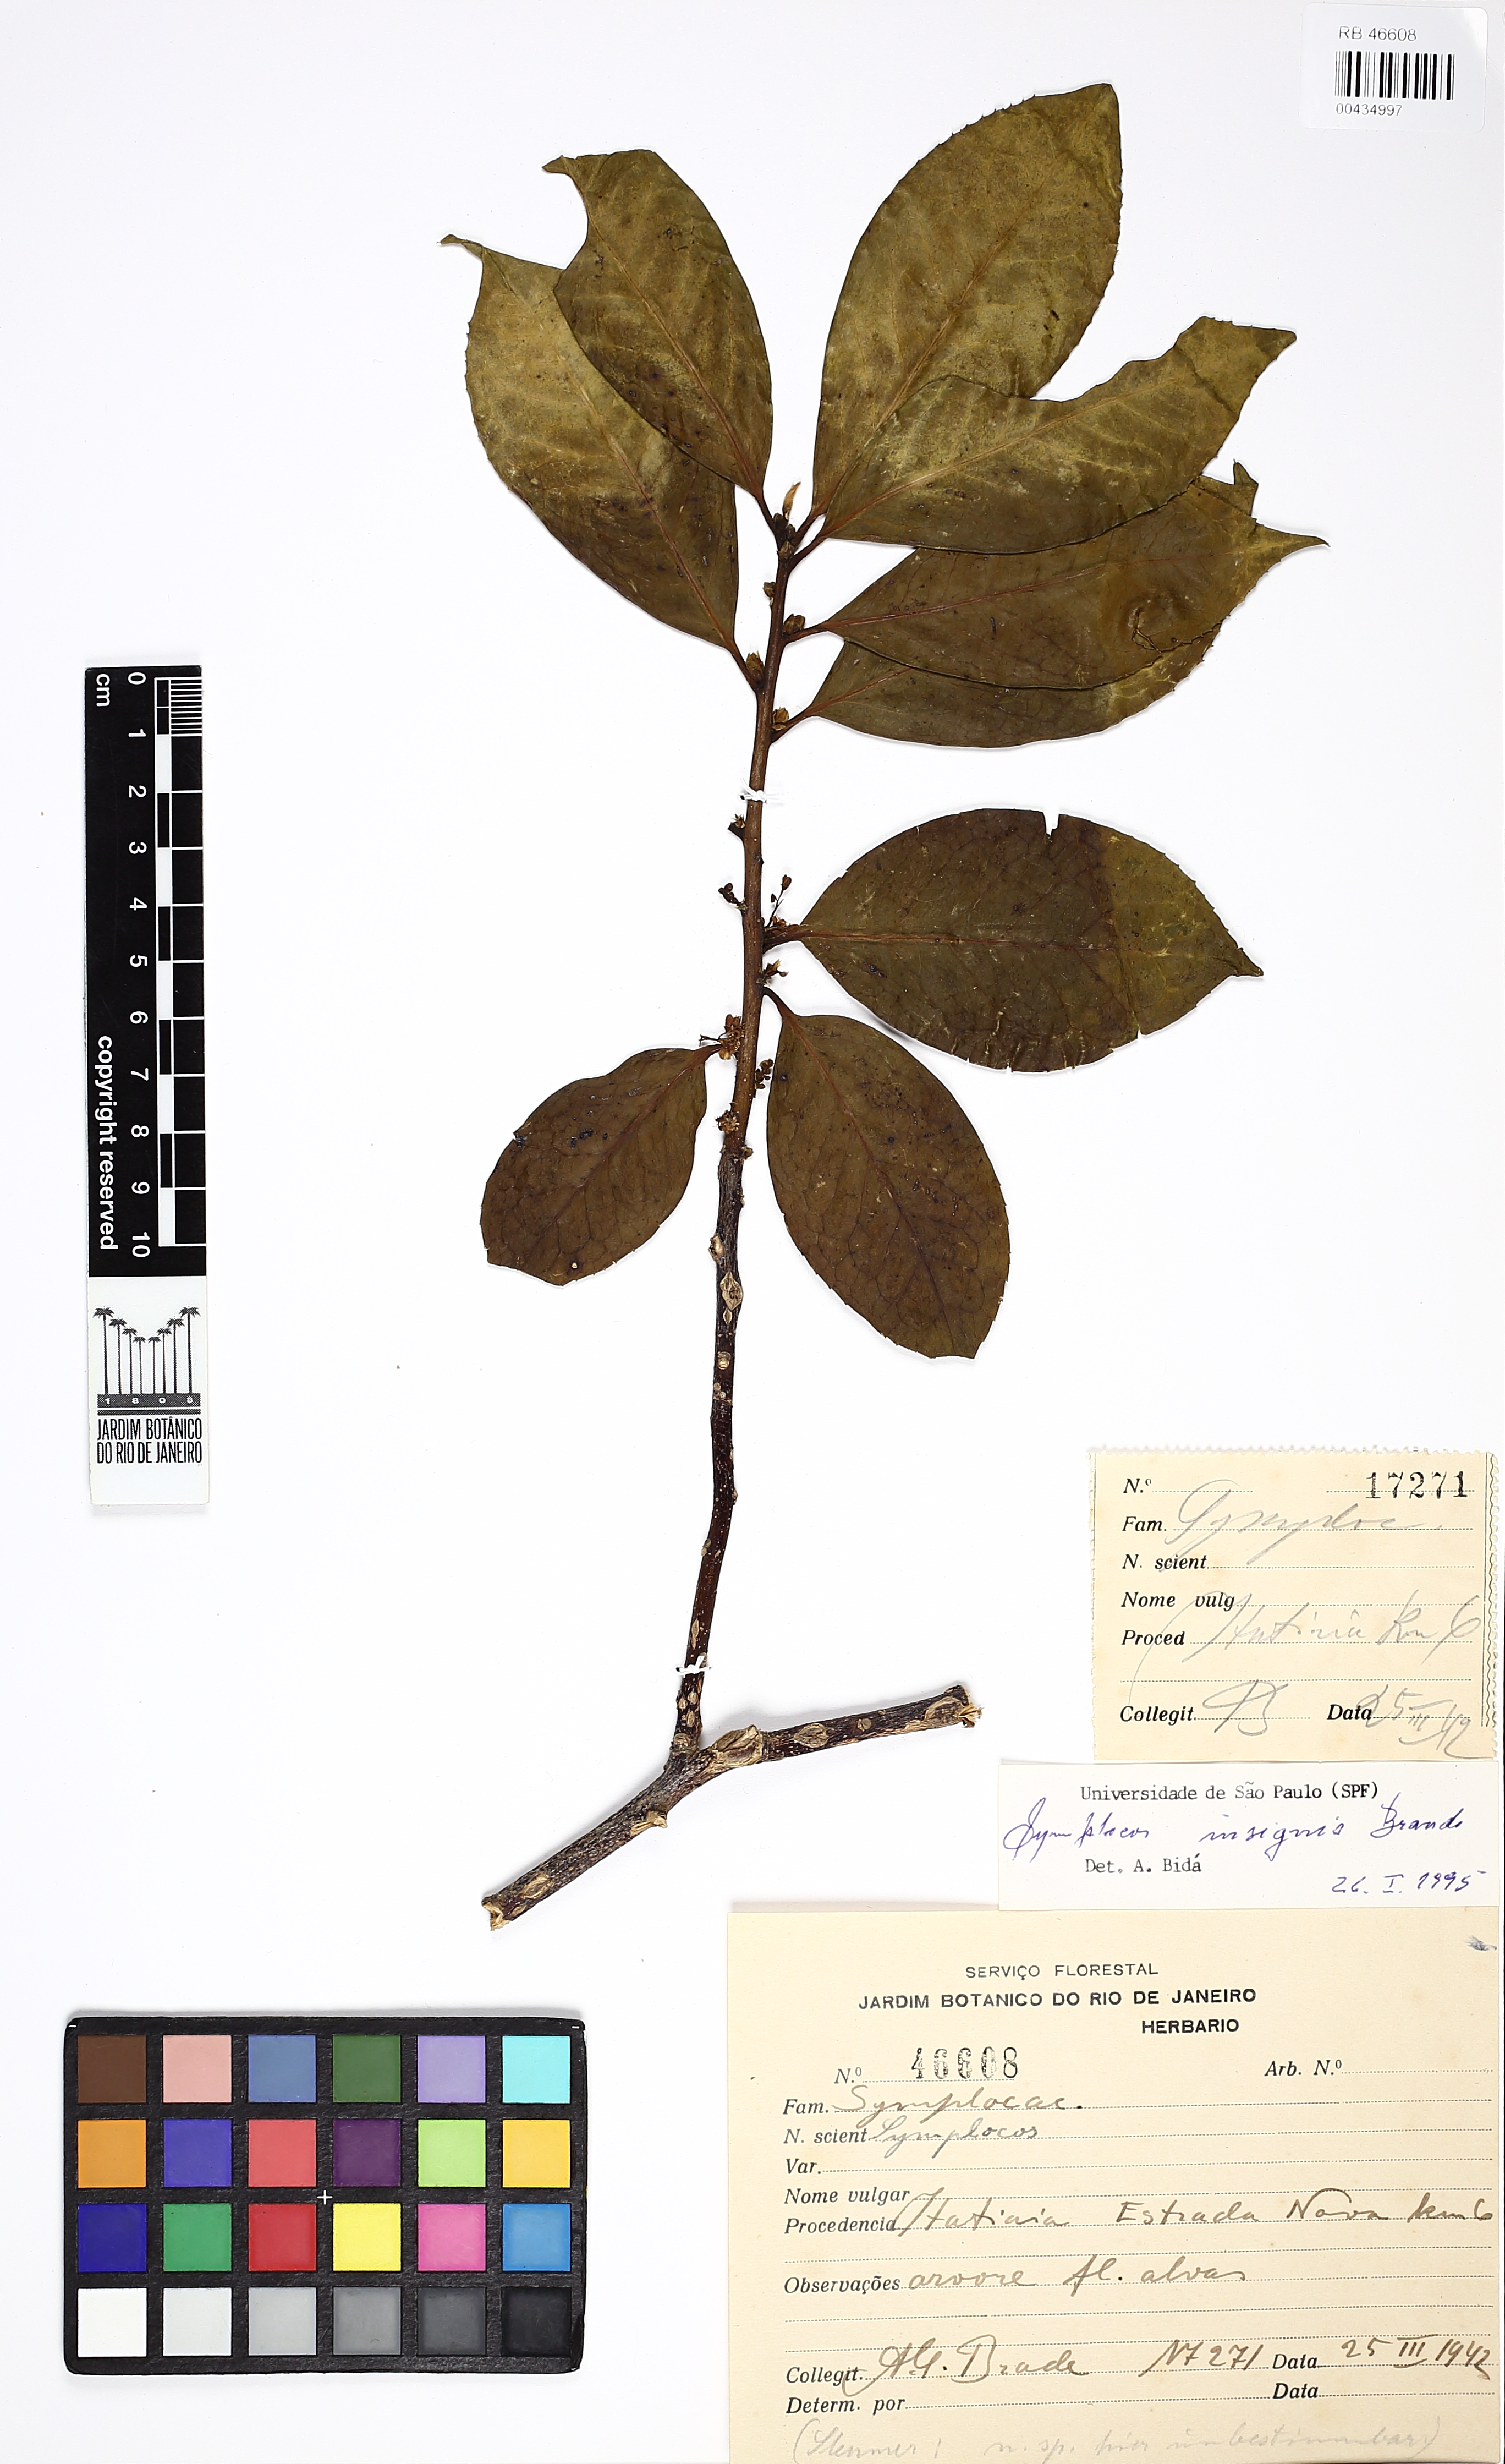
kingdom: Plantae
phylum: Tracheophyta
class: Magnoliopsida
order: Ericales
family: Symplocaceae
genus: Symplocos
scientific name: Symplocos insignis
